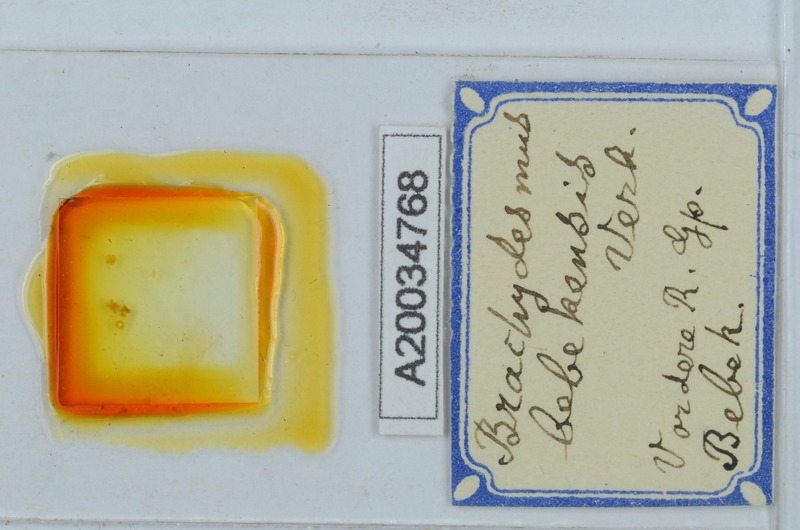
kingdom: Animalia
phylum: Arthropoda
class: Diplopoda
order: Polydesmida
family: Polydesmidae
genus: Brachydesmus
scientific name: Brachydesmus bebekensis
